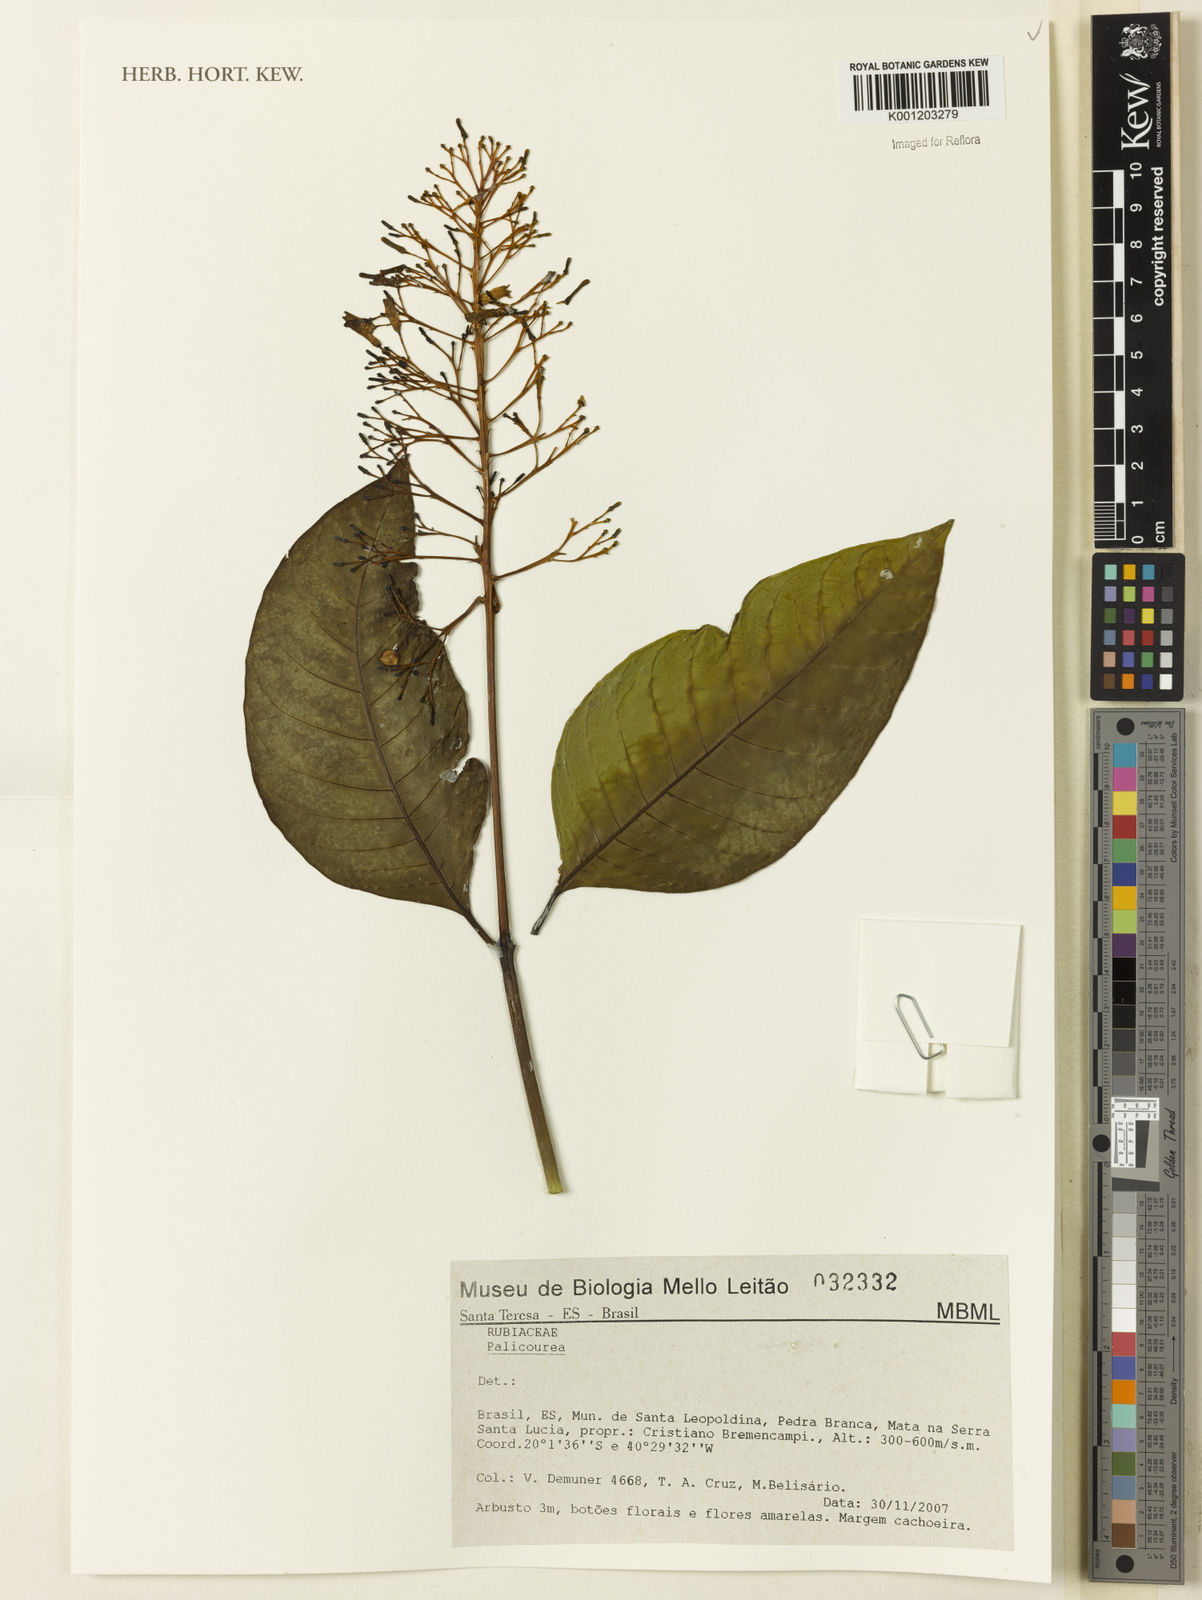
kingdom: Plantae
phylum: Tracheophyta
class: Magnoliopsida
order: Gentianales
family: Rubiaceae
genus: Palicourea
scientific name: Palicourea
